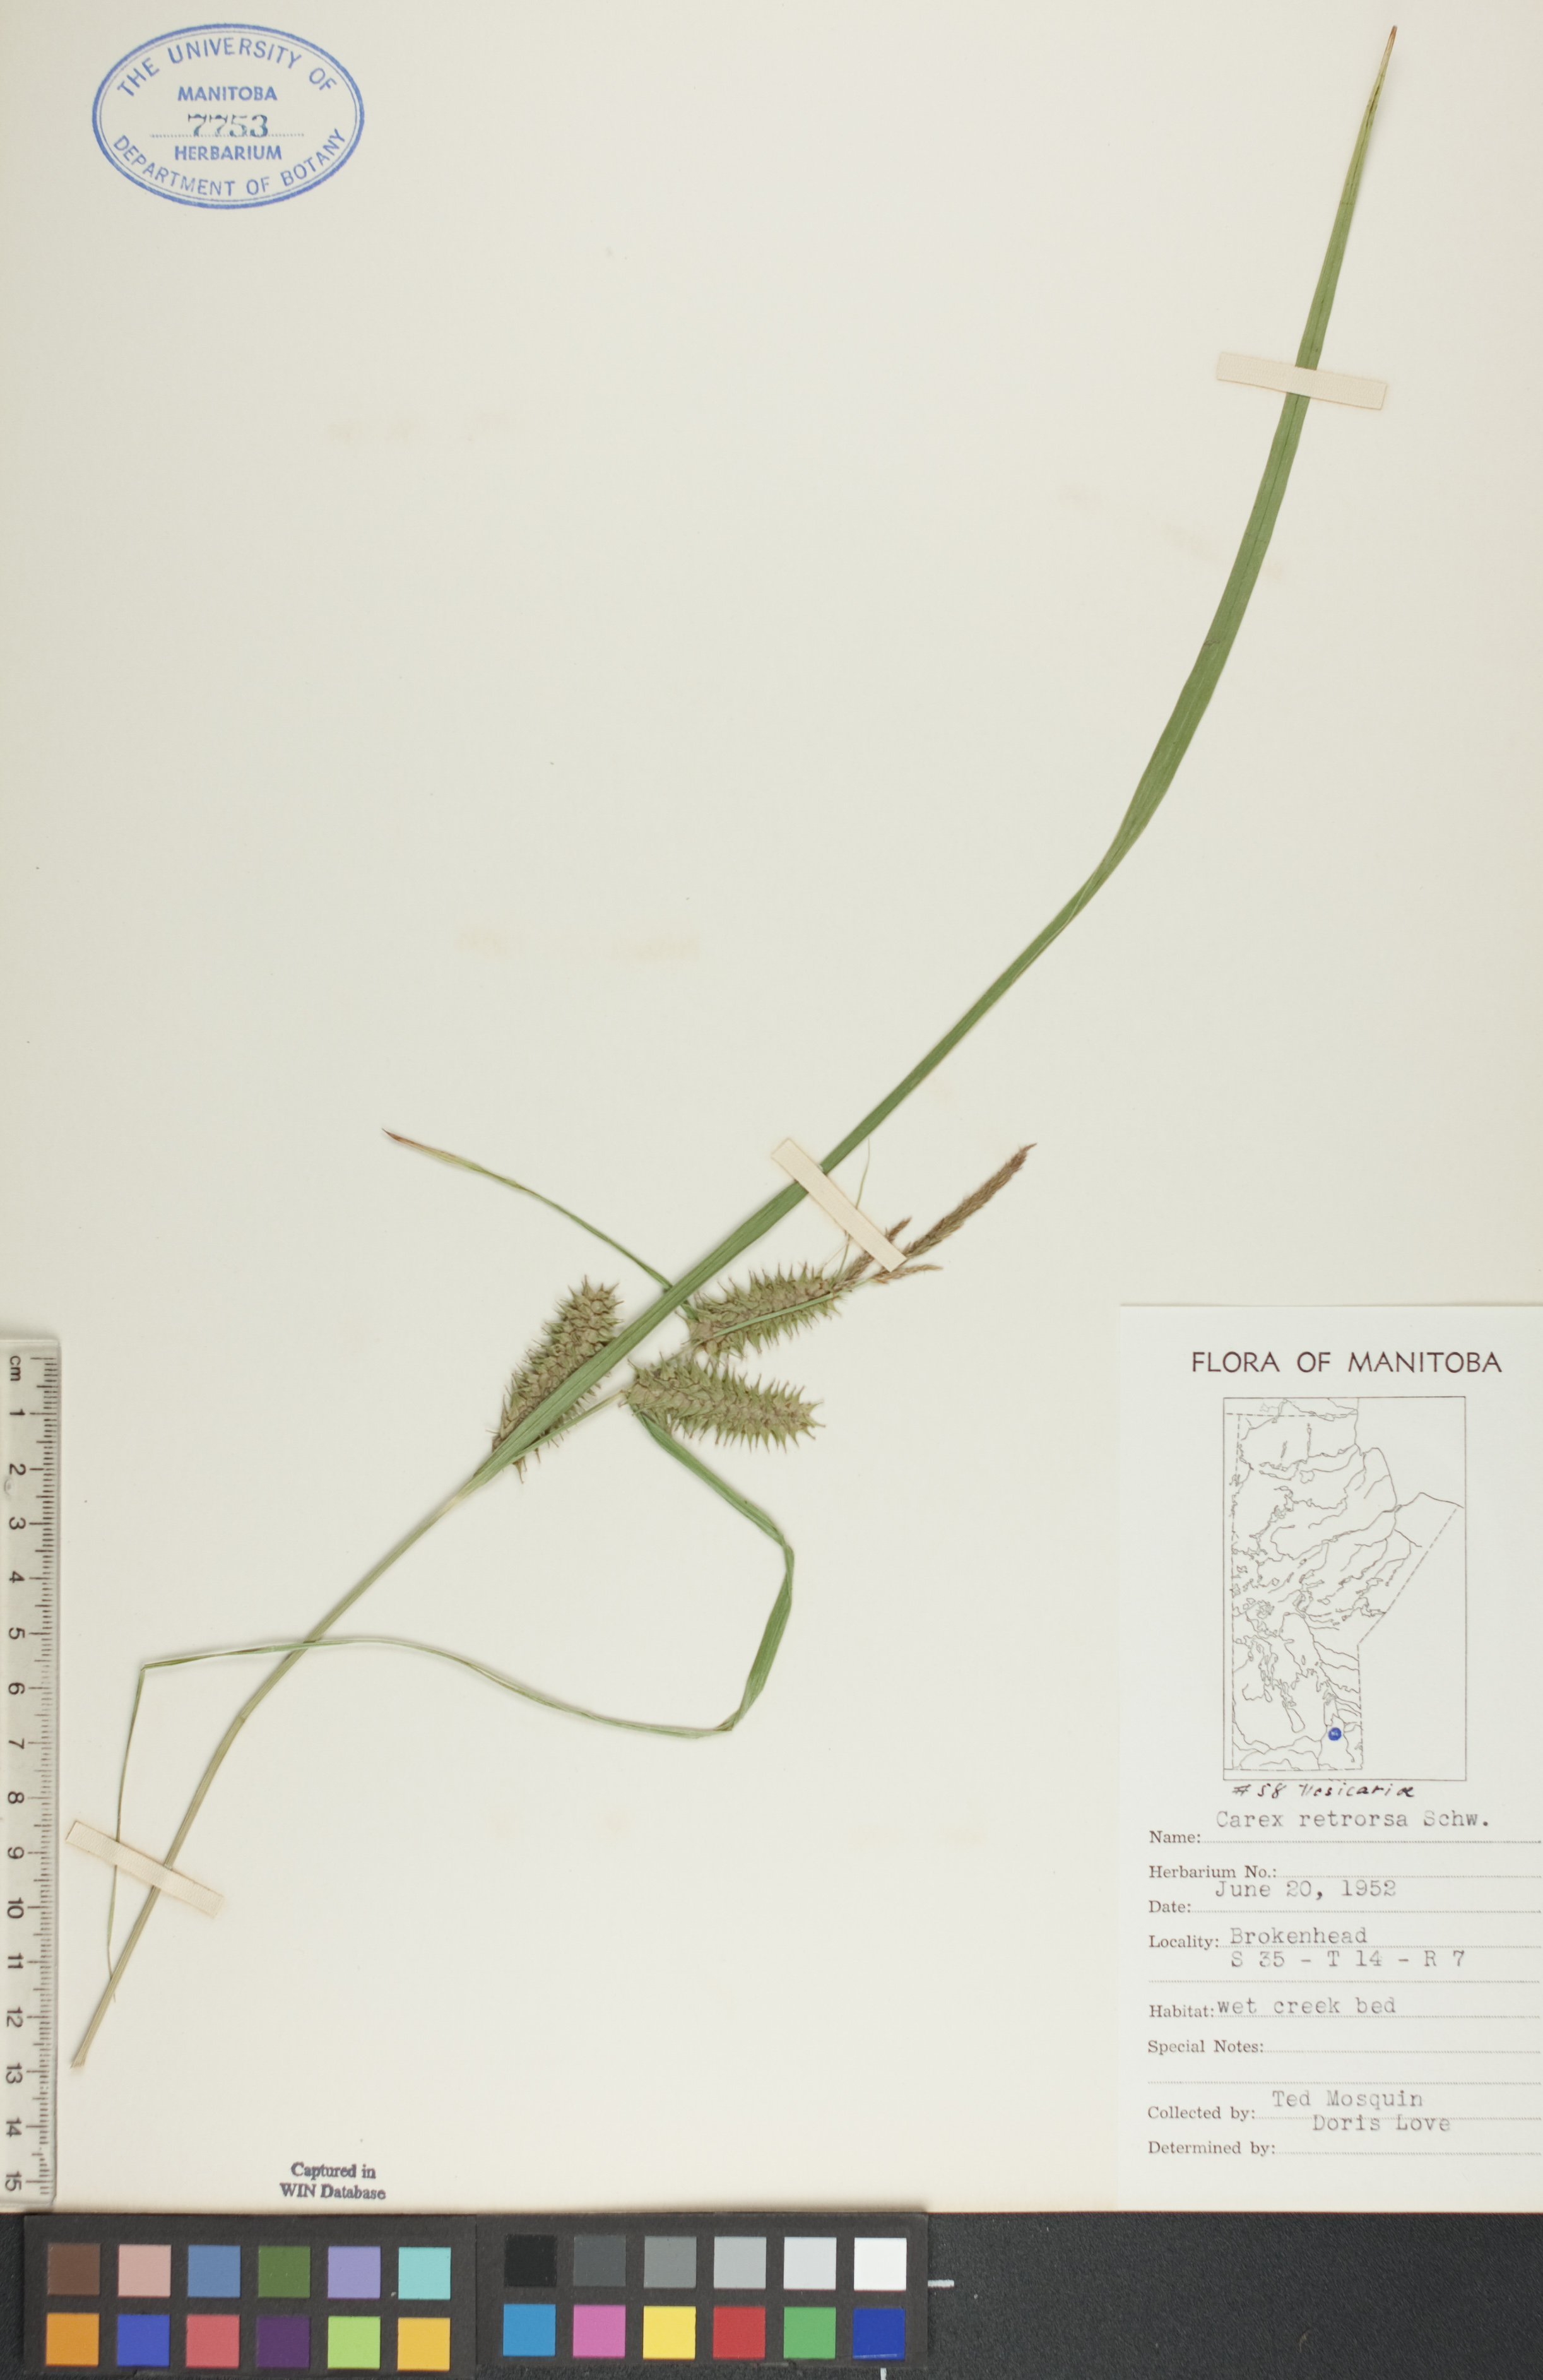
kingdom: Plantae
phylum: Tracheophyta
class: Liliopsida
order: Poales
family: Cyperaceae
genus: Carex
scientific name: Carex retrorsa
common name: Knot-sheath sedge
